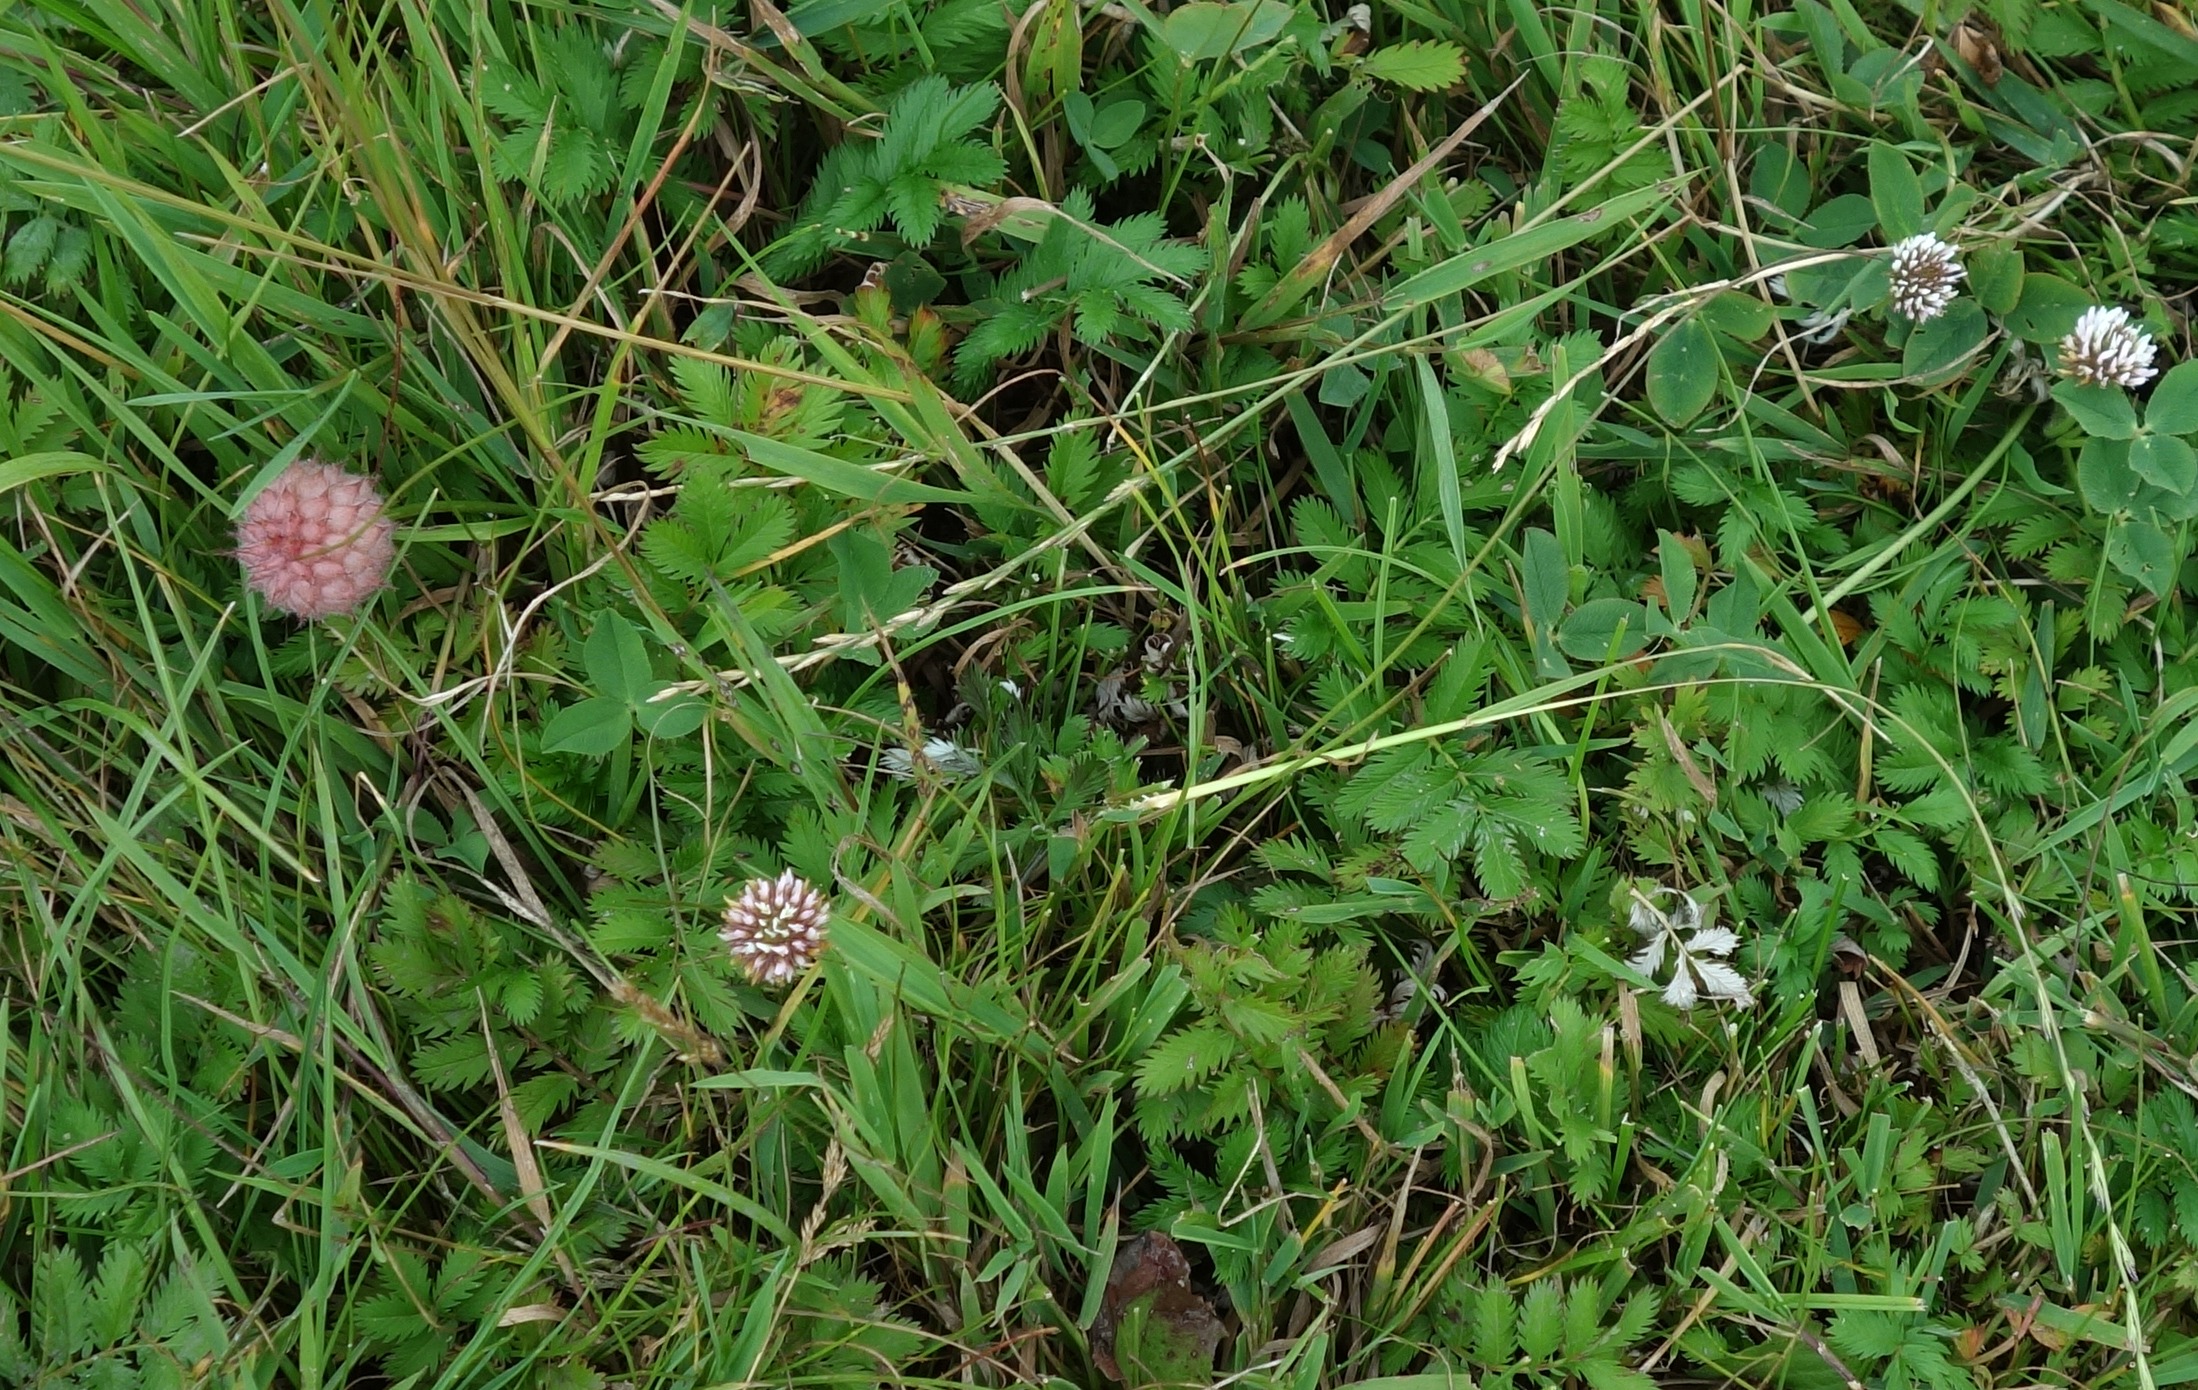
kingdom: Plantae
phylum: Tracheophyta
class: Magnoliopsida
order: Fabales
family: Fabaceae
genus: Trifolium
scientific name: Trifolium fragiferum
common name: Jordbær-kløver
